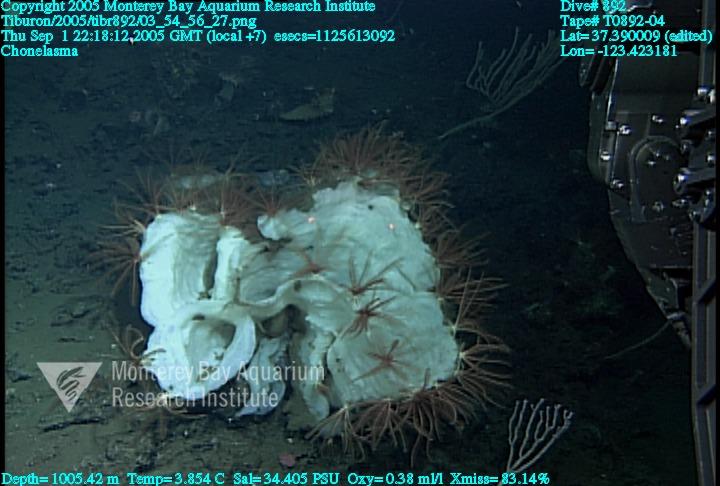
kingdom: Animalia
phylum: Porifera
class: Hexactinellida
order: Sceptrulophora
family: Euretidae
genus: Chonelasma
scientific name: Chonelasma
